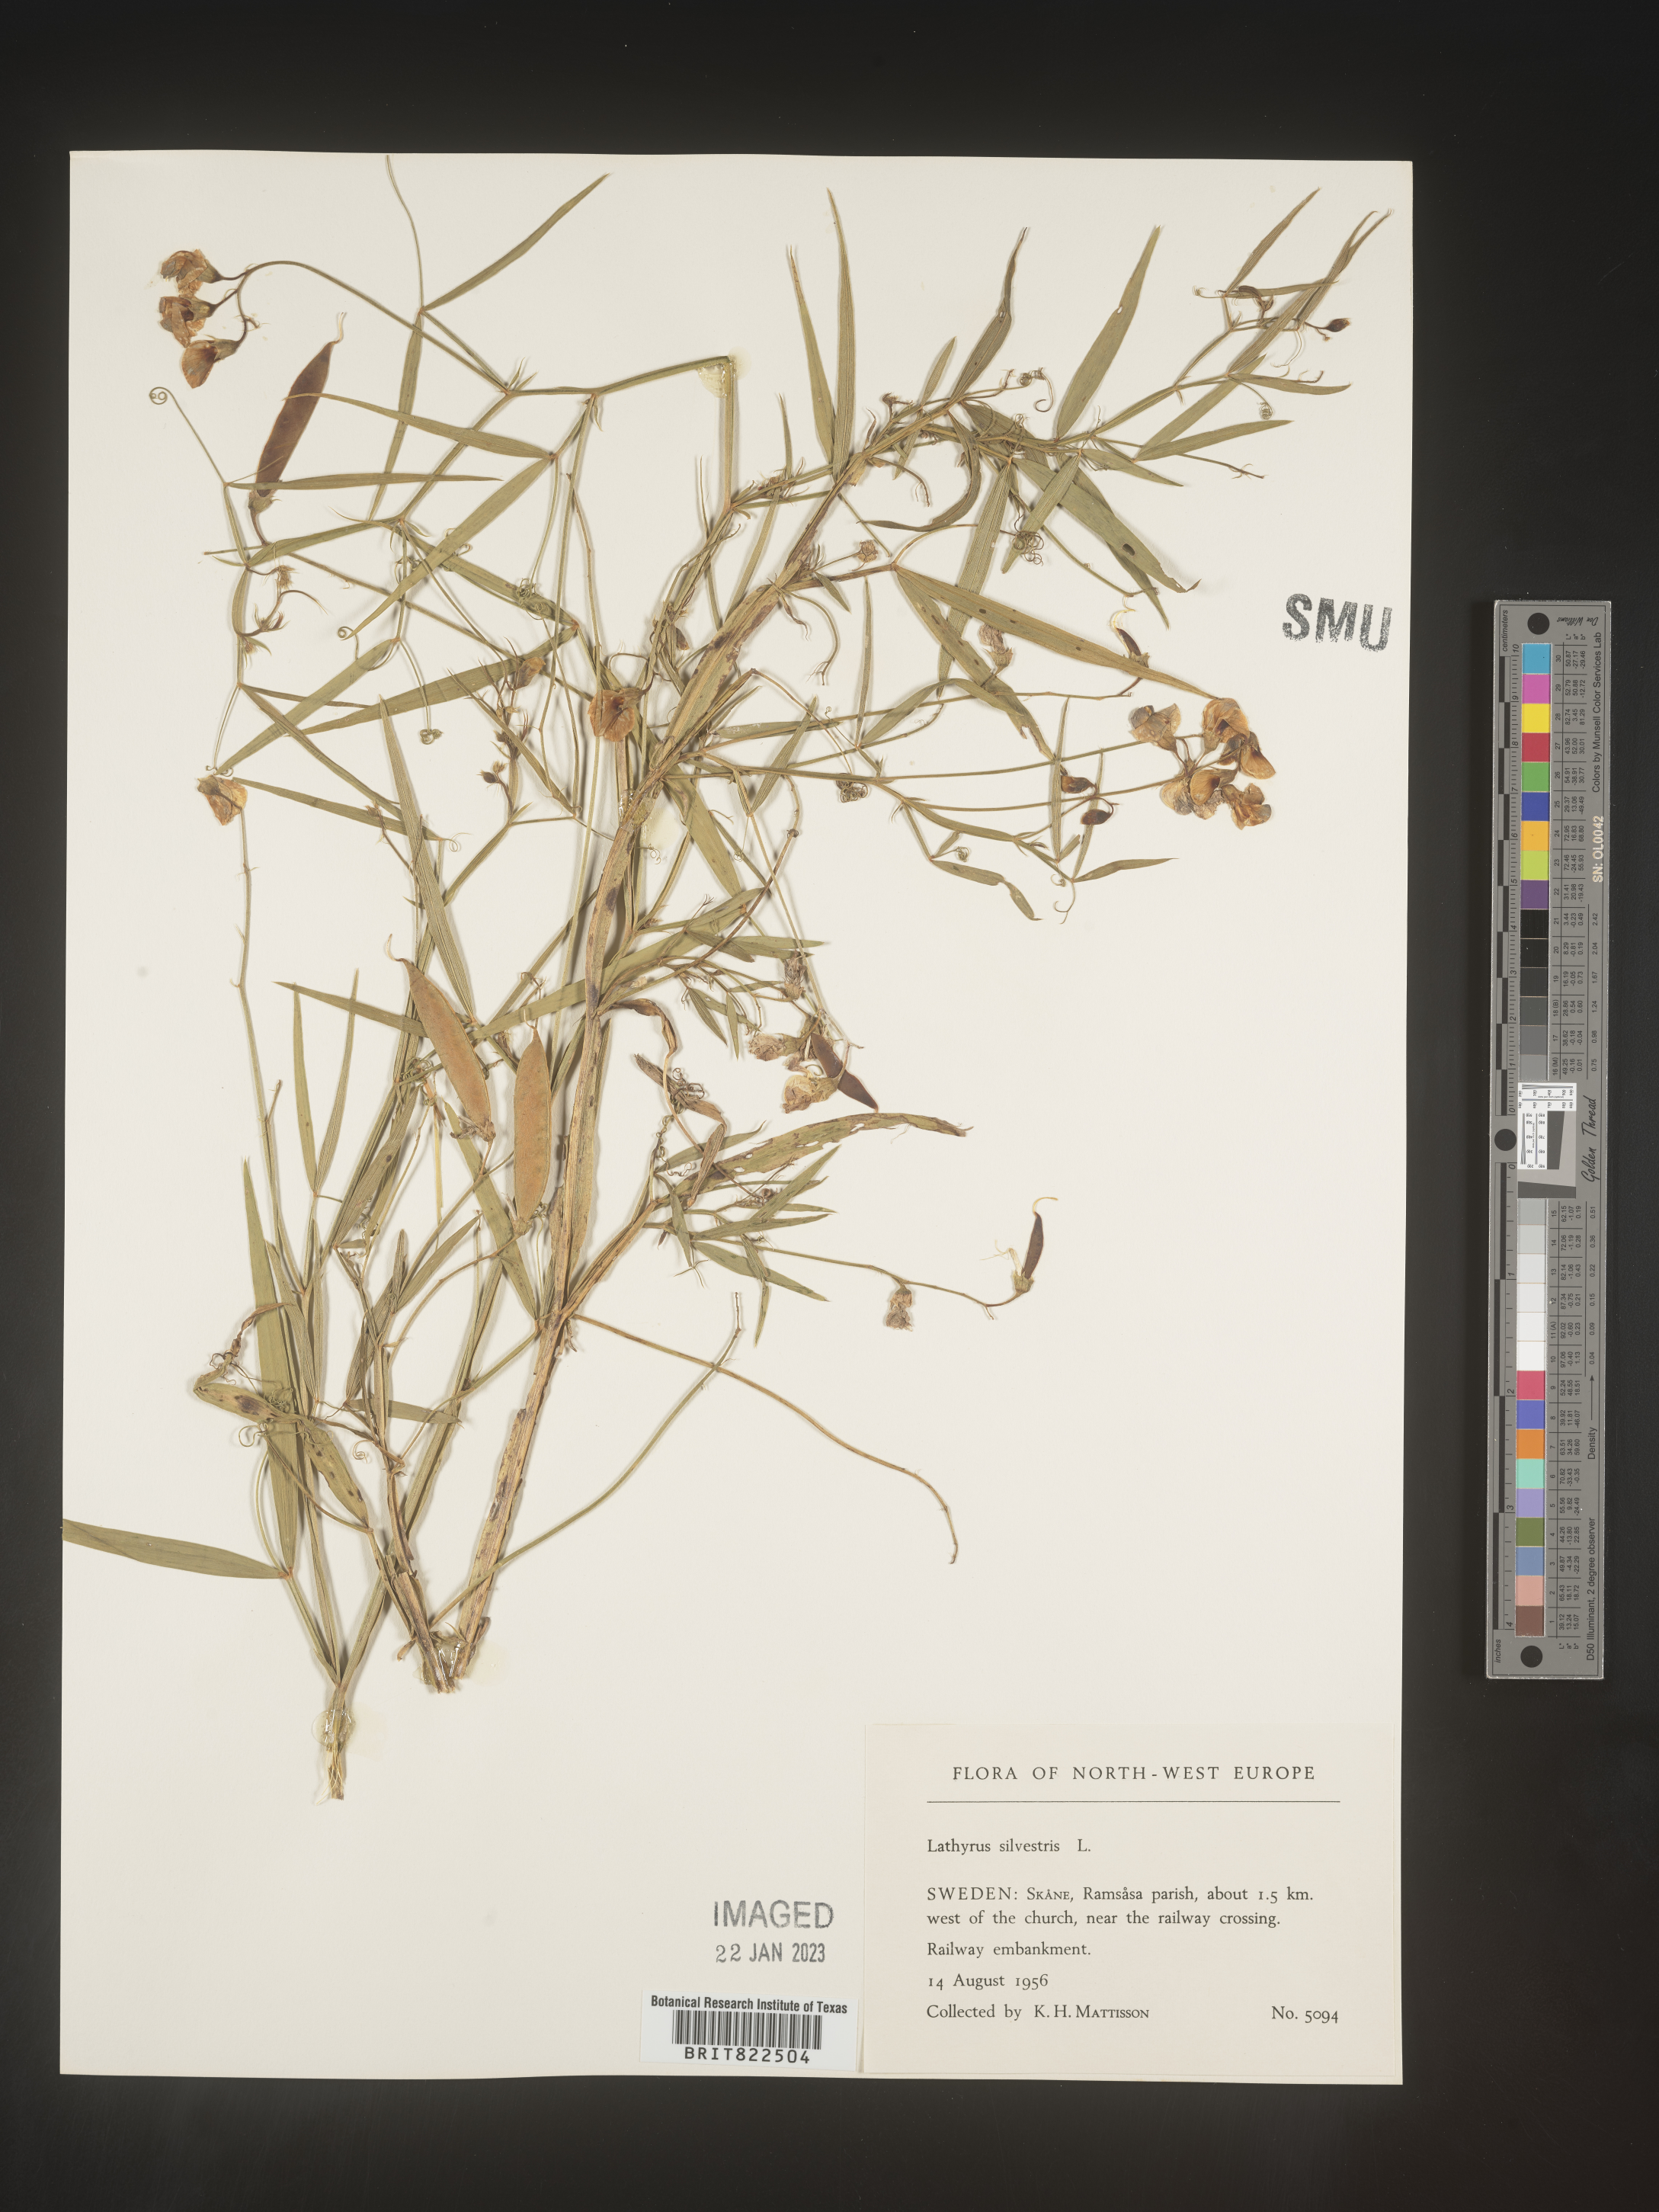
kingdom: Plantae
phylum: Tracheophyta
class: Magnoliopsida
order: Fabales
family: Fabaceae
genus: Lathyrus
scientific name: Lathyrus
